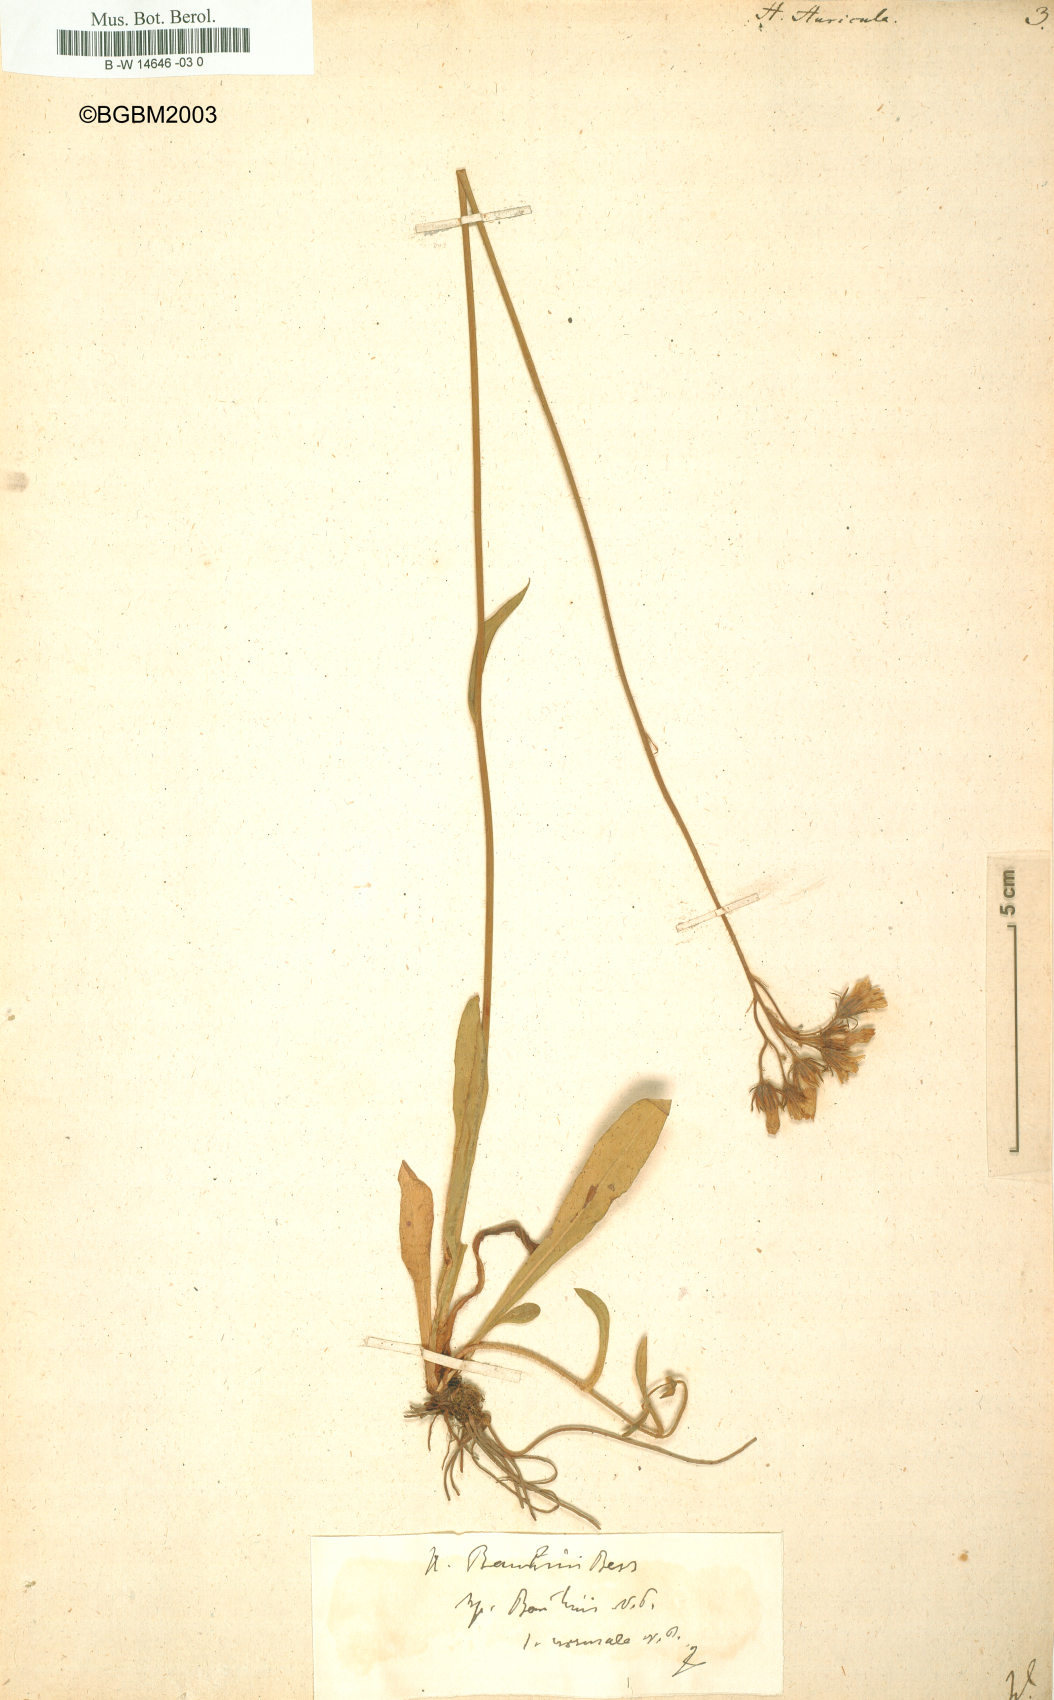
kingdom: Plantae
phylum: Tracheophyta
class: Magnoliopsida
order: Asterales
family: Asteraceae
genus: Hieracium
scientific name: Hieracium auricula
